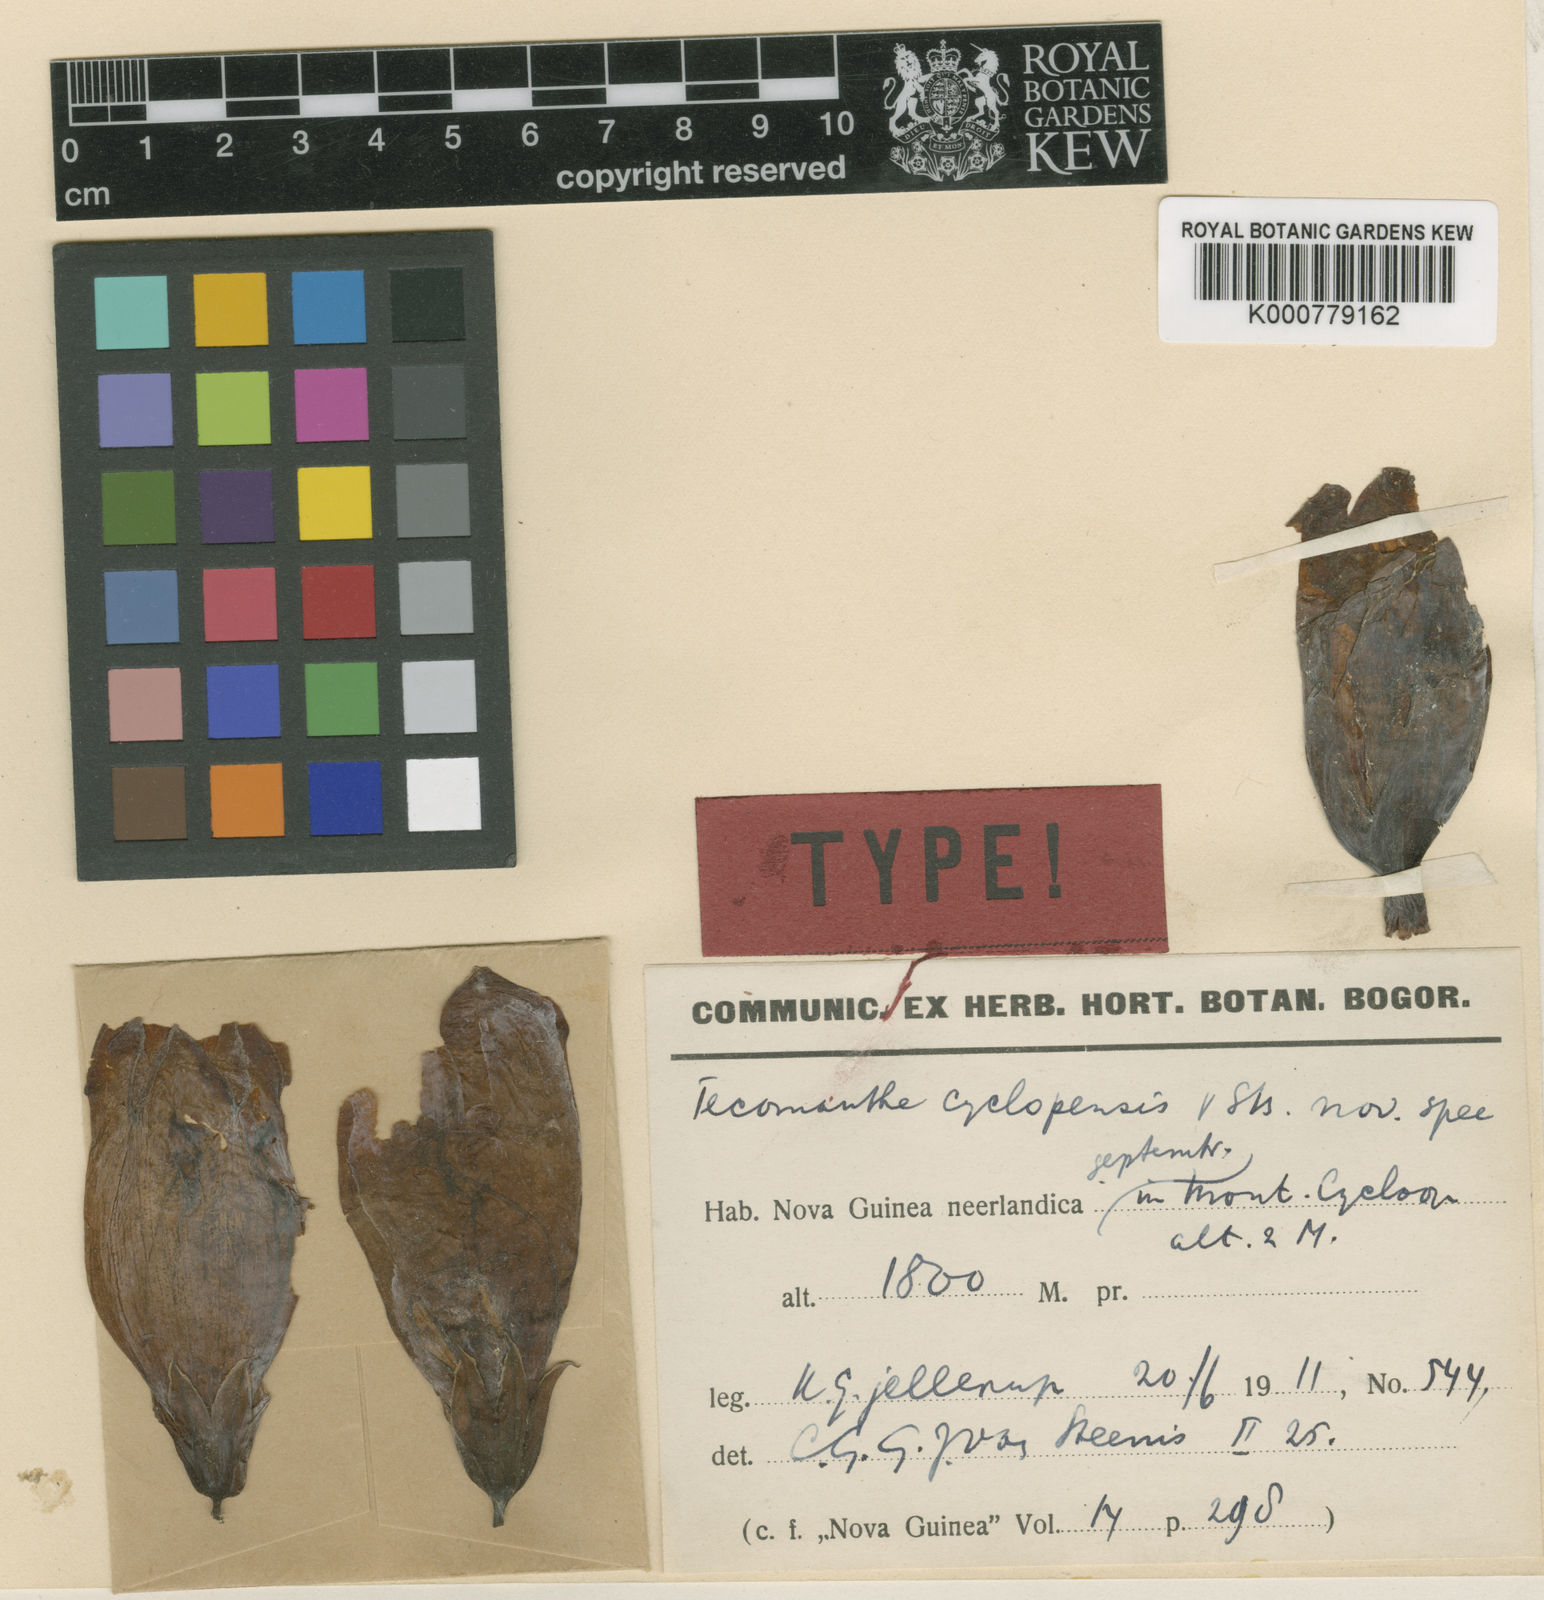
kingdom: Plantae
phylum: Tracheophyta
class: Magnoliopsida
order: Lamiales
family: Bignoniaceae
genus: Tecomanthe
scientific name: Tecomanthe volubilis
